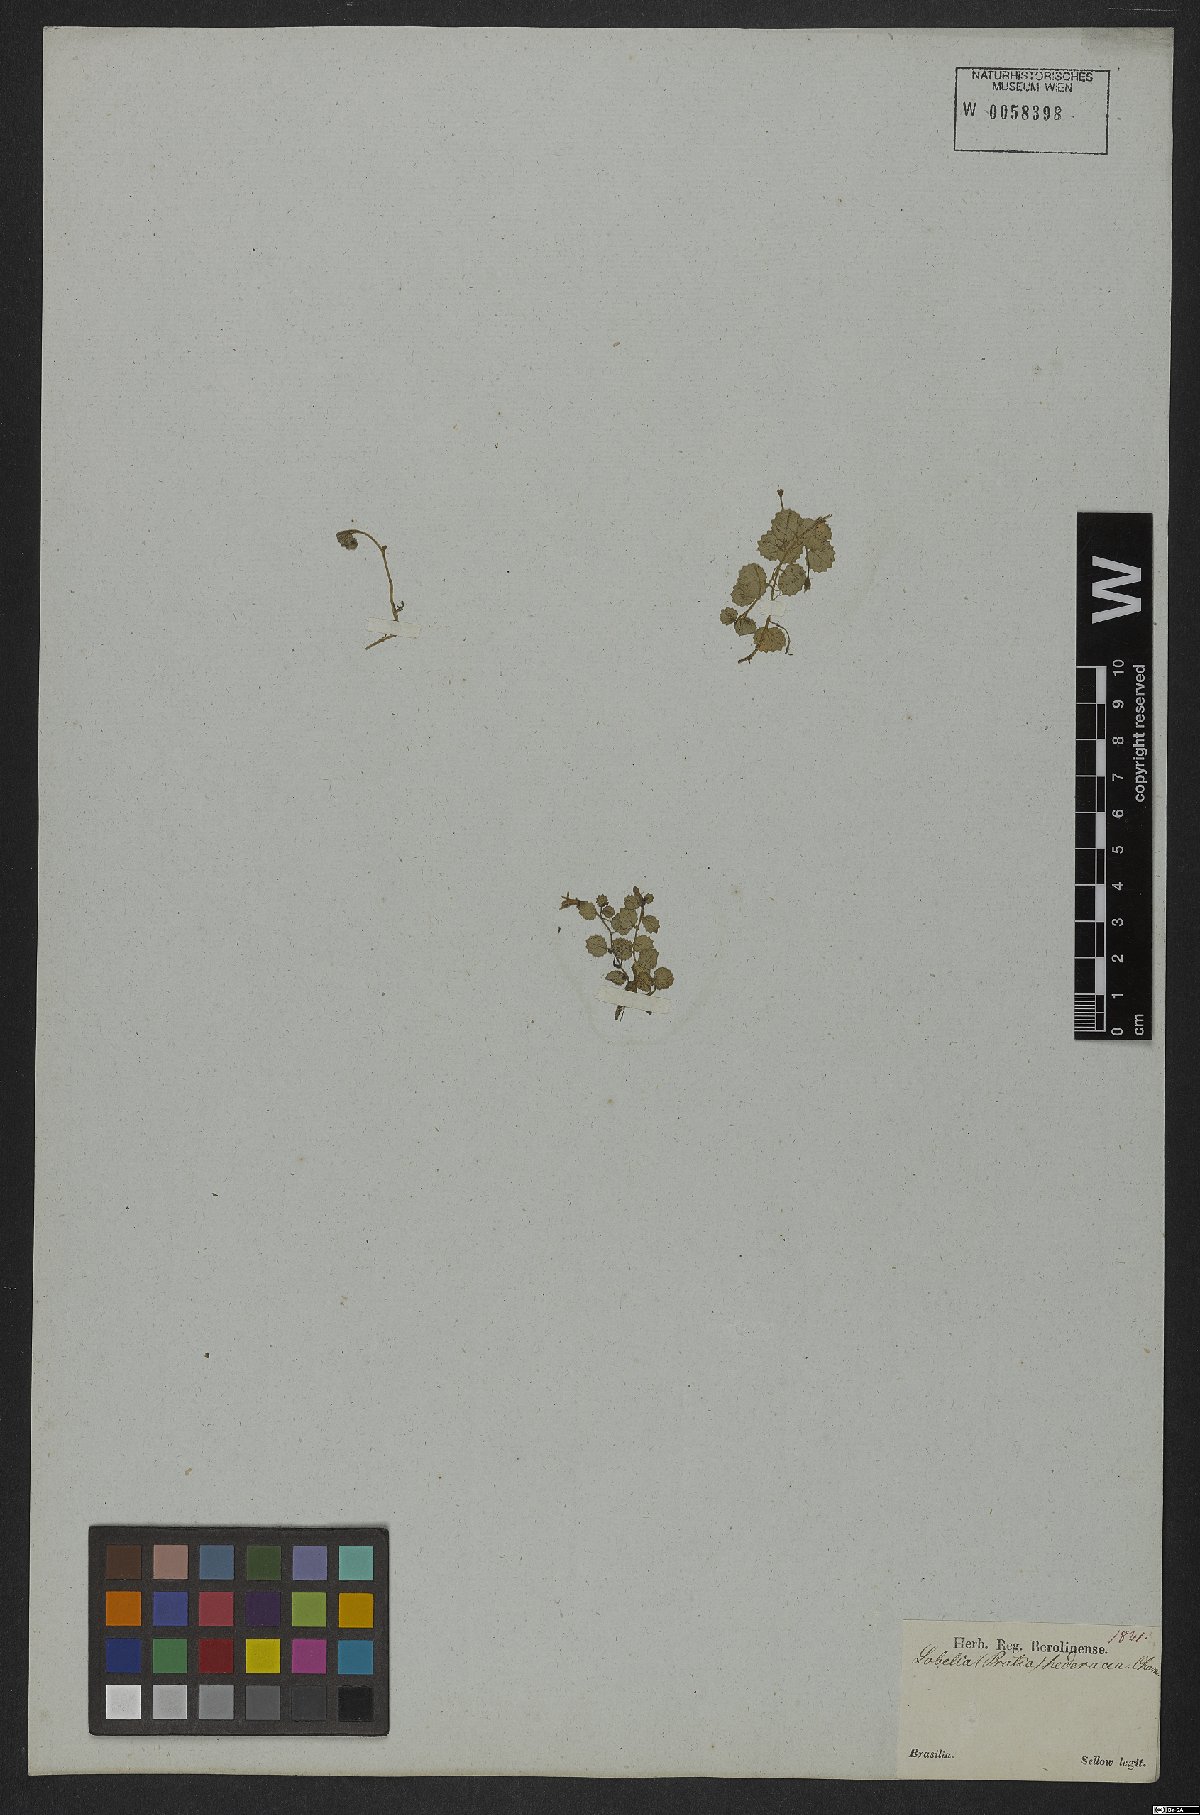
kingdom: Plantae
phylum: Tracheophyta
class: Magnoliopsida
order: Asterales
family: Campanulaceae
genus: Lobelia
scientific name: Lobelia hederacea
